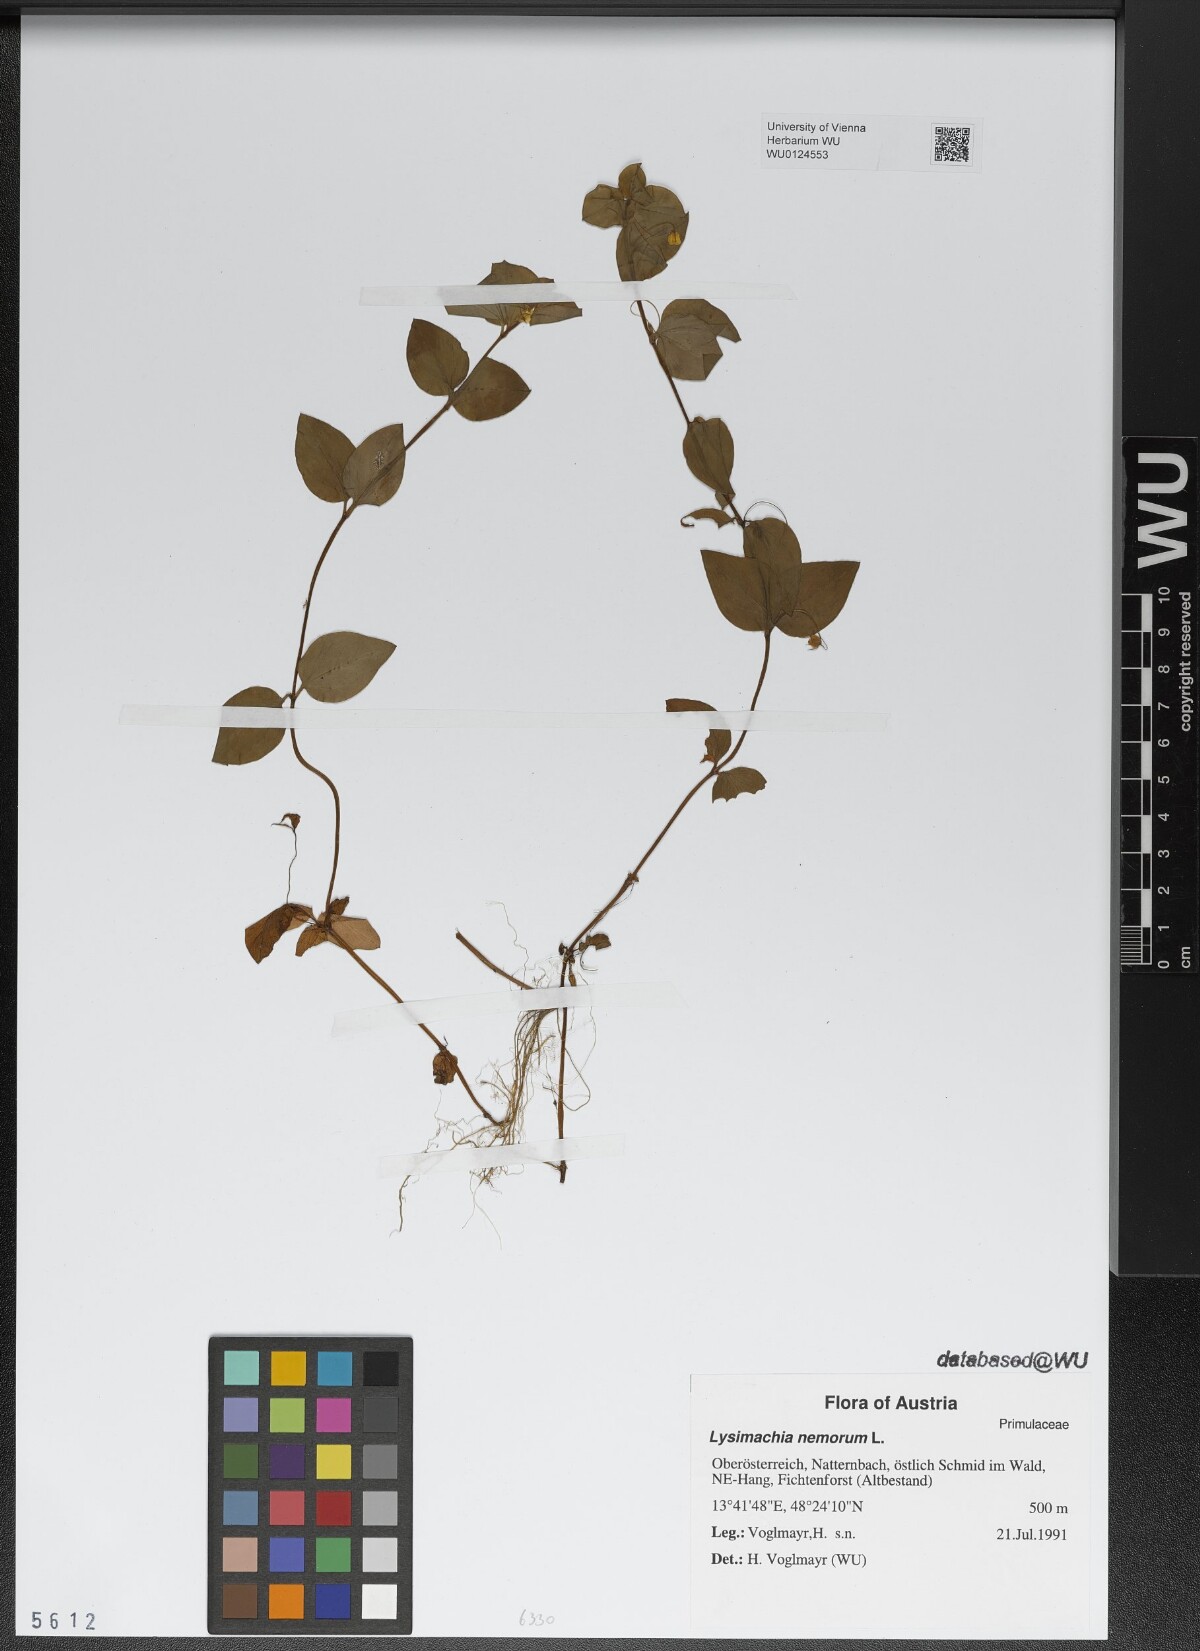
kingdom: Plantae
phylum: Tracheophyta
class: Magnoliopsida
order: Ericales
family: Primulaceae
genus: Lysimachia
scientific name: Lysimachia nemorum
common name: Yellow pimpernel
